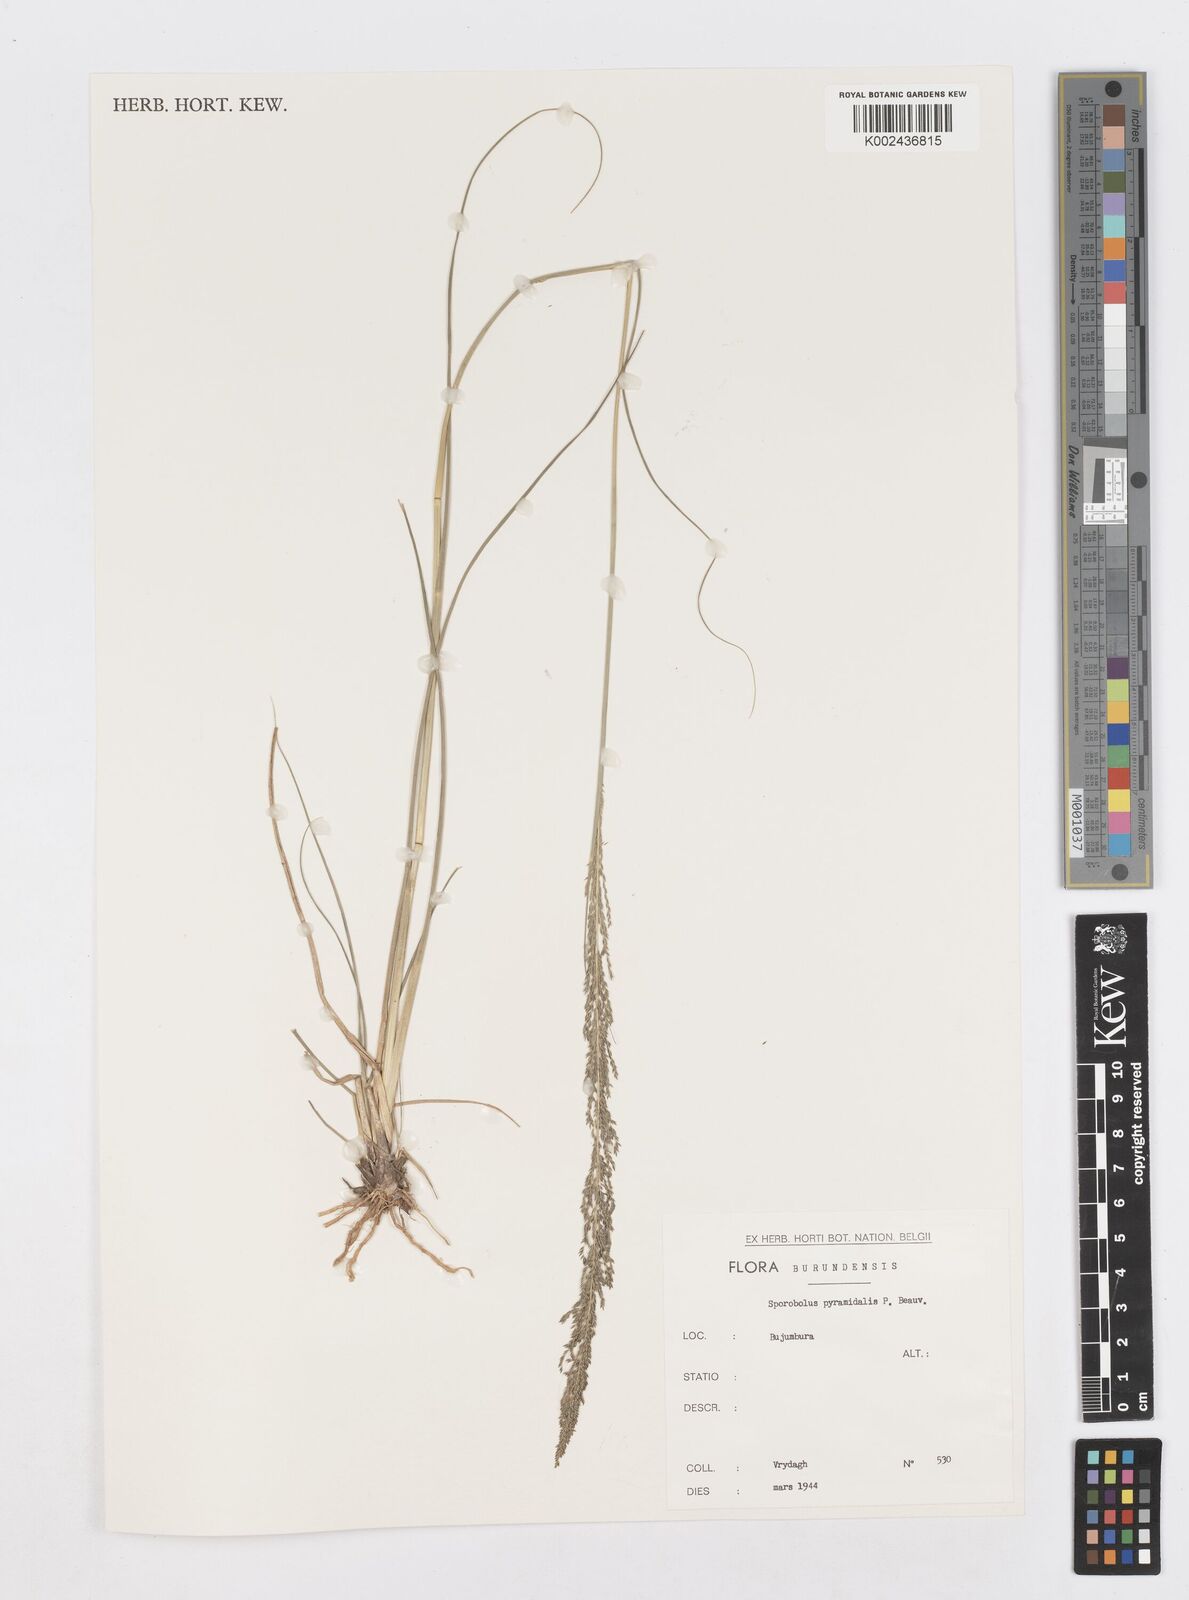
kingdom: Plantae
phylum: Tracheophyta
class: Liliopsida
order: Poales
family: Poaceae
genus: Sporobolus
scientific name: Sporobolus pyramidalis
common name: West indian dropseed
